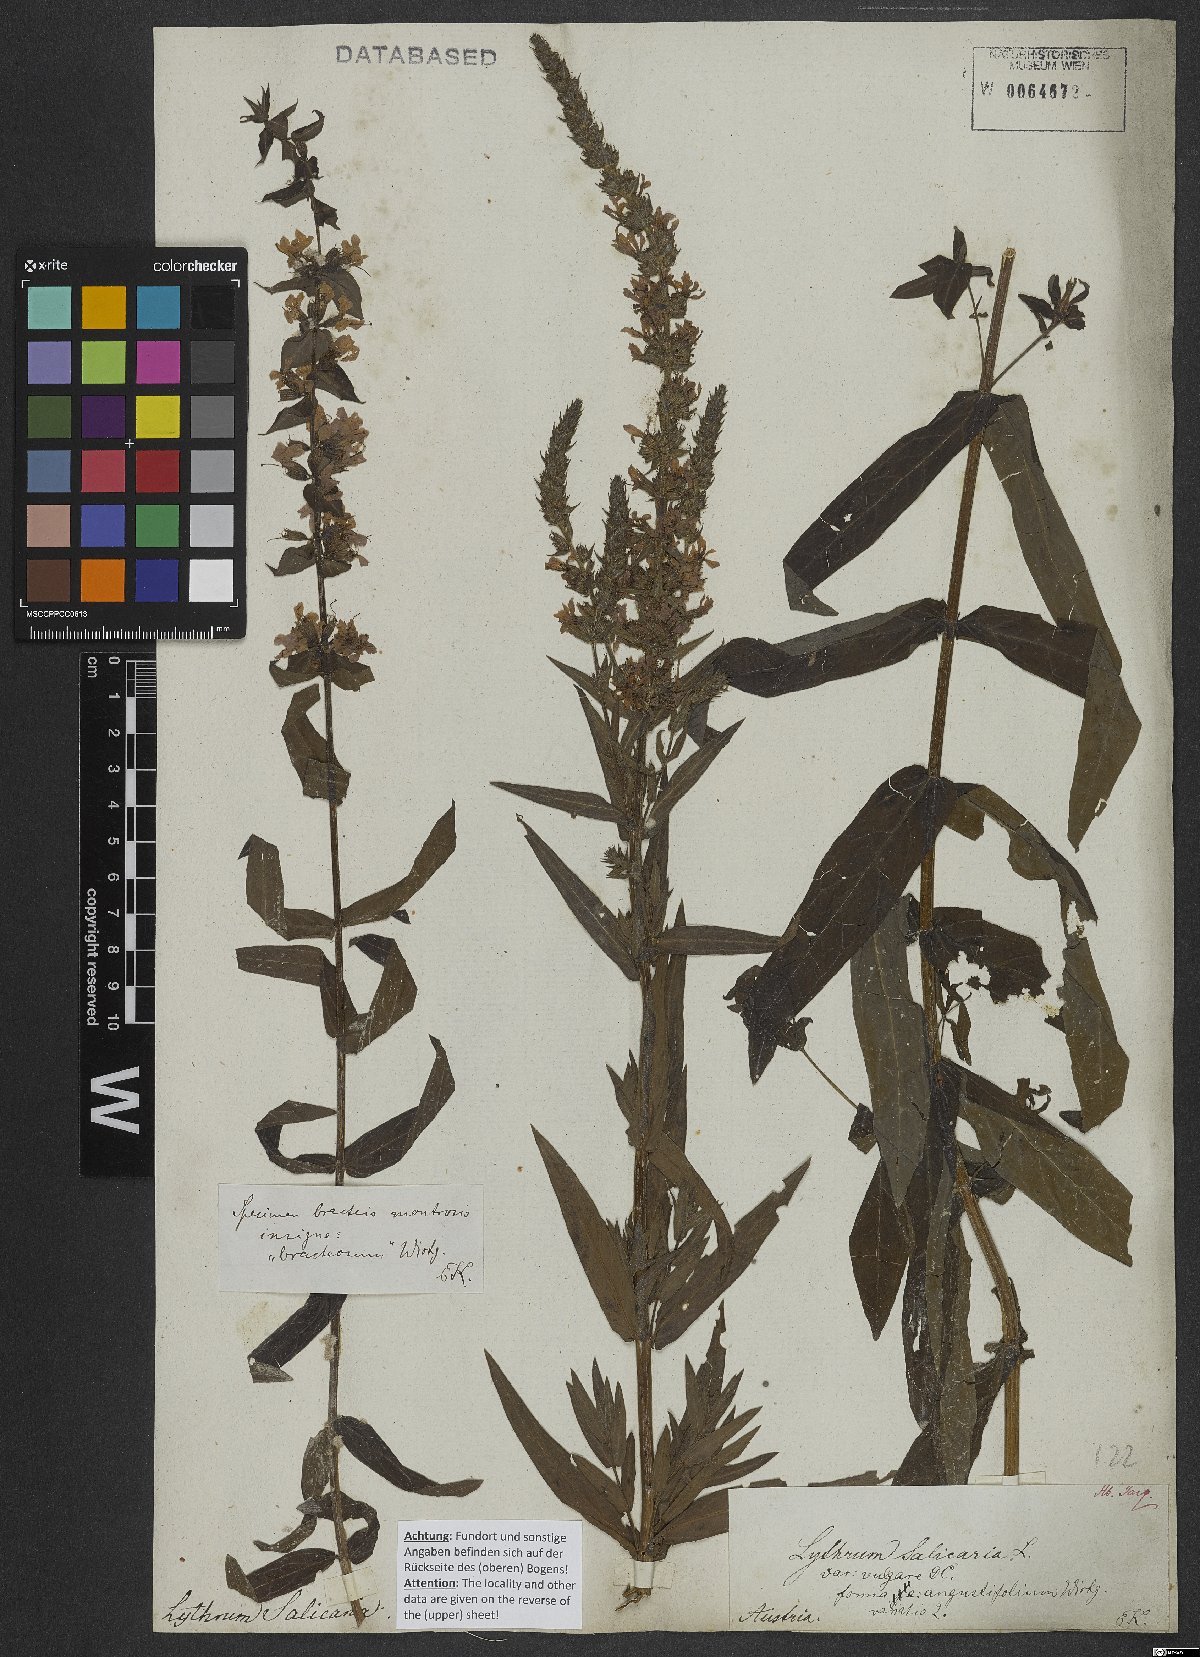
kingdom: Plantae
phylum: Tracheophyta
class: Magnoliopsida
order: Myrtales
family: Lythraceae
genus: Lythrum
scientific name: Lythrum salicaria
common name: Purple loosestrife
